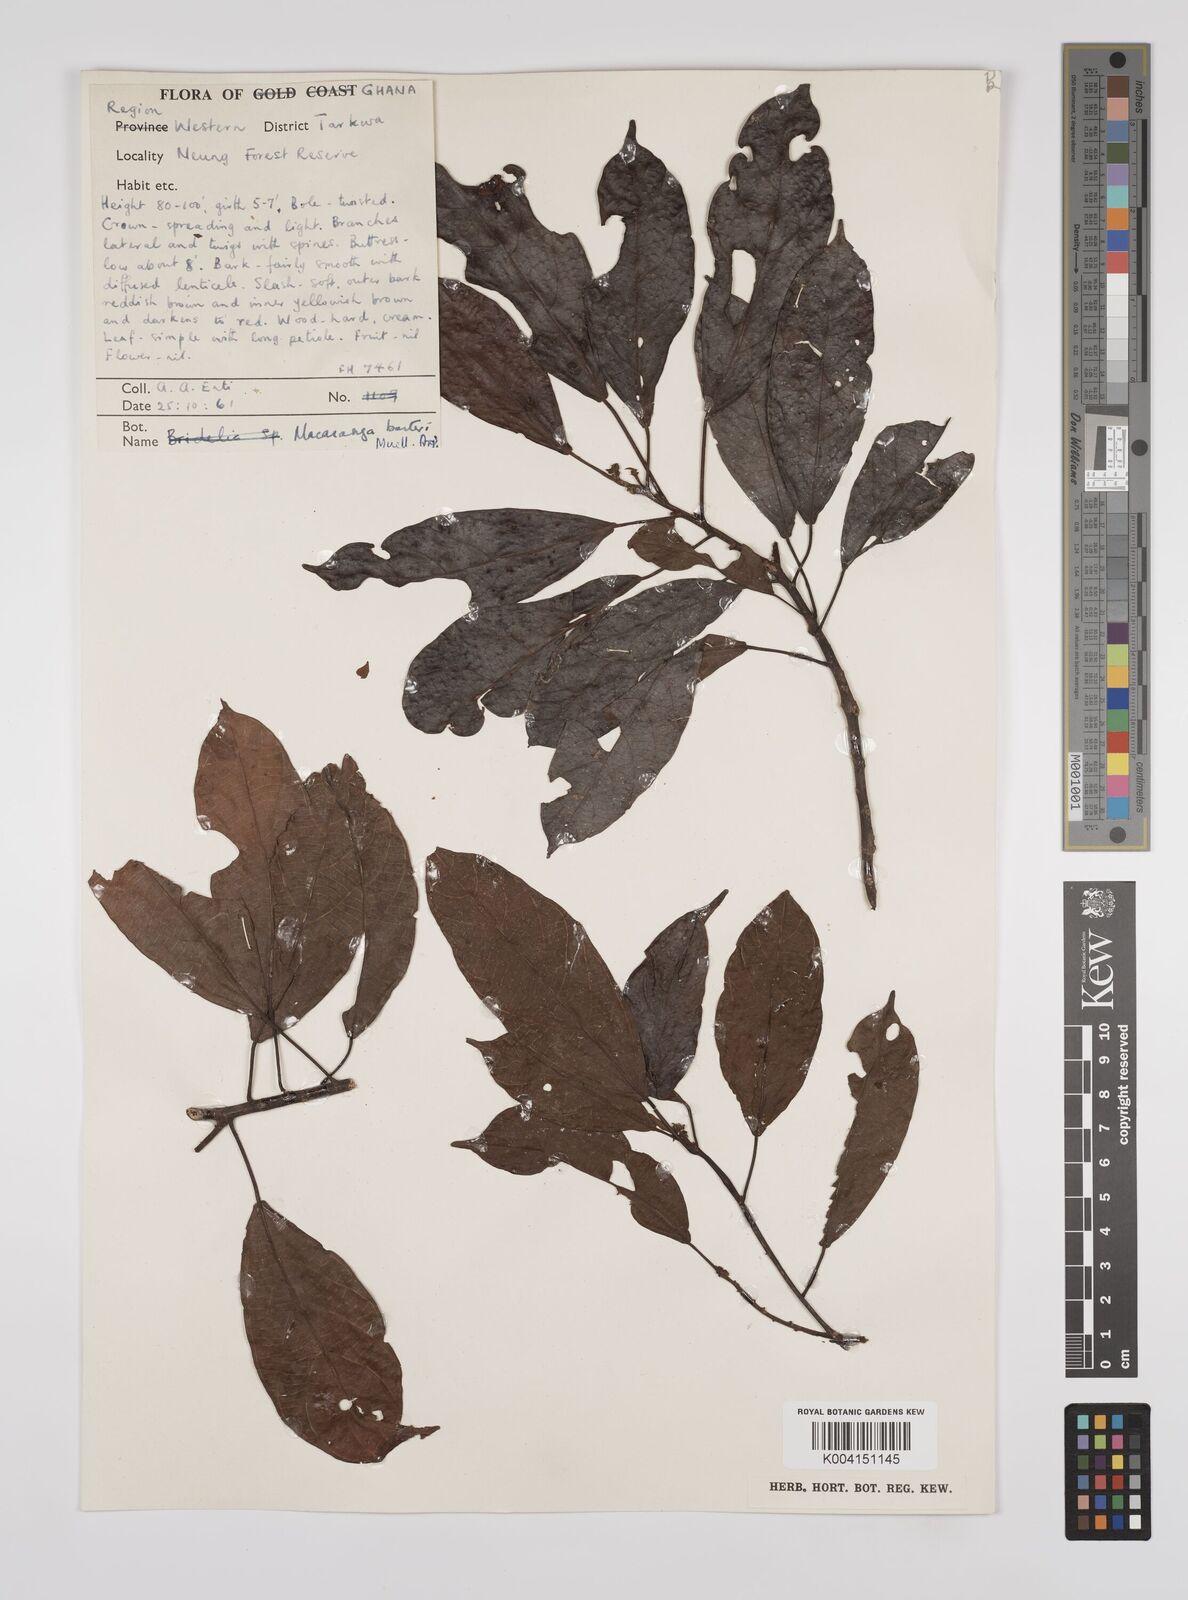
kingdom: Plantae
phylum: Tracheophyta
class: Magnoliopsida
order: Malpighiales
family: Euphorbiaceae
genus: Macaranga
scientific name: Macaranga barteri
